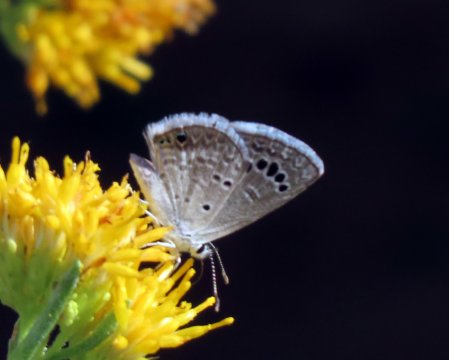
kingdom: Animalia
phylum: Arthropoda
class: Insecta
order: Lepidoptera
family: Lycaenidae
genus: Echinargus
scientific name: Echinargus isola
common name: Reakirt's Blue
